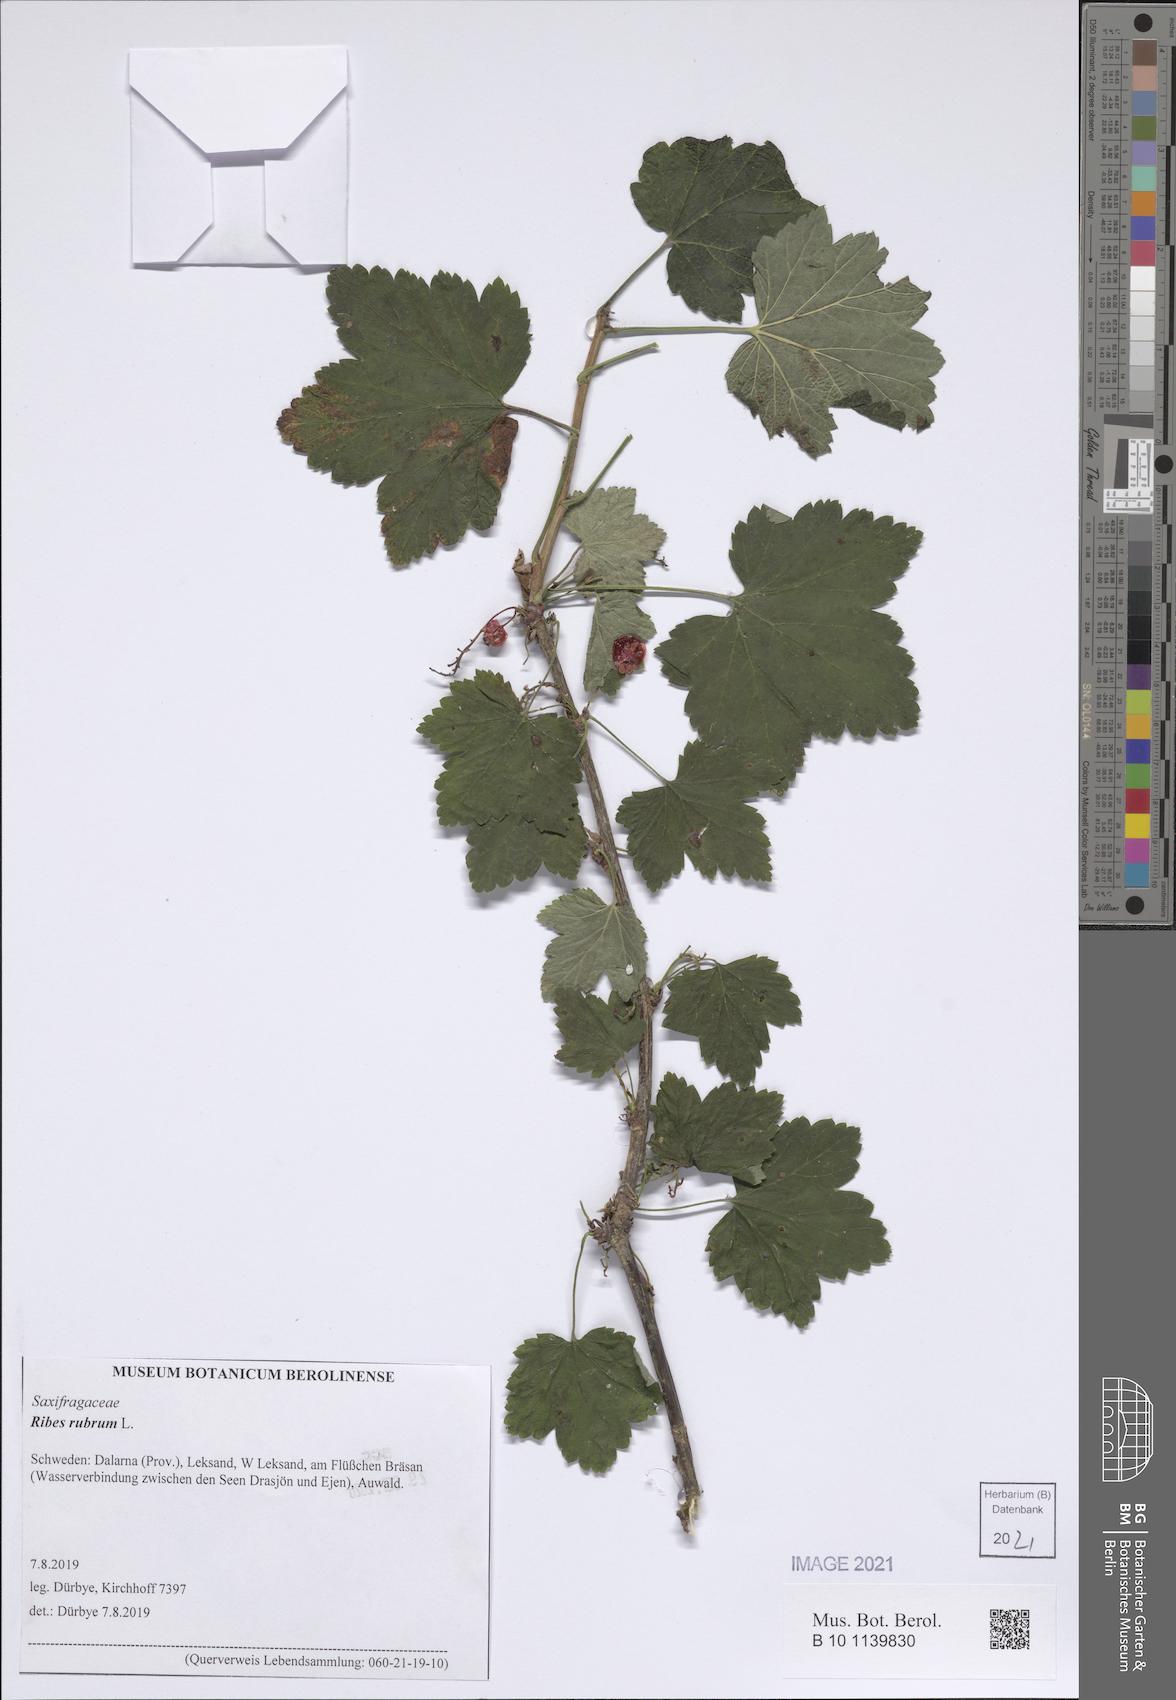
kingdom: Plantae
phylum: Tracheophyta
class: Magnoliopsida
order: Saxifragales
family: Grossulariaceae
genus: Ribes
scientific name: Ribes rubrum
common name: Red currant
